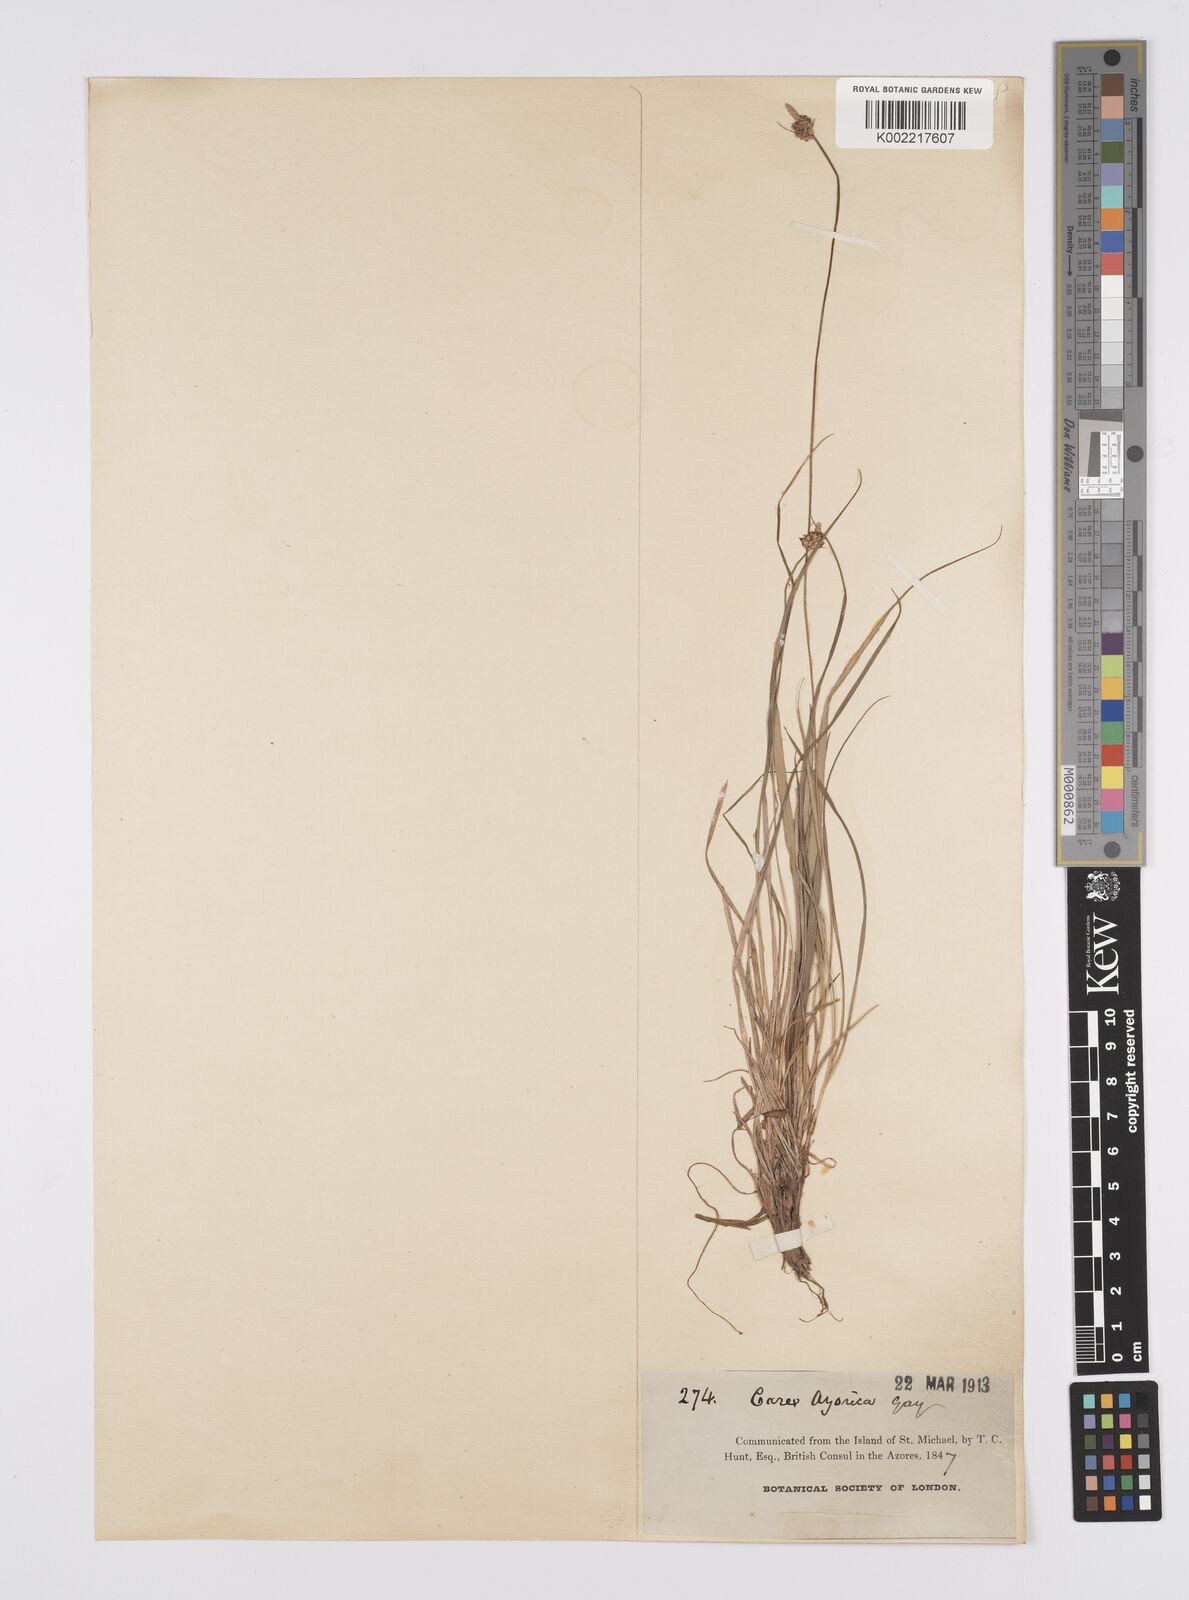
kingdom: Plantae
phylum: Tracheophyta
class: Liliopsida
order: Poales
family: Cyperaceae
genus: Carex
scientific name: Carex pilulifera
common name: Pill sedge
